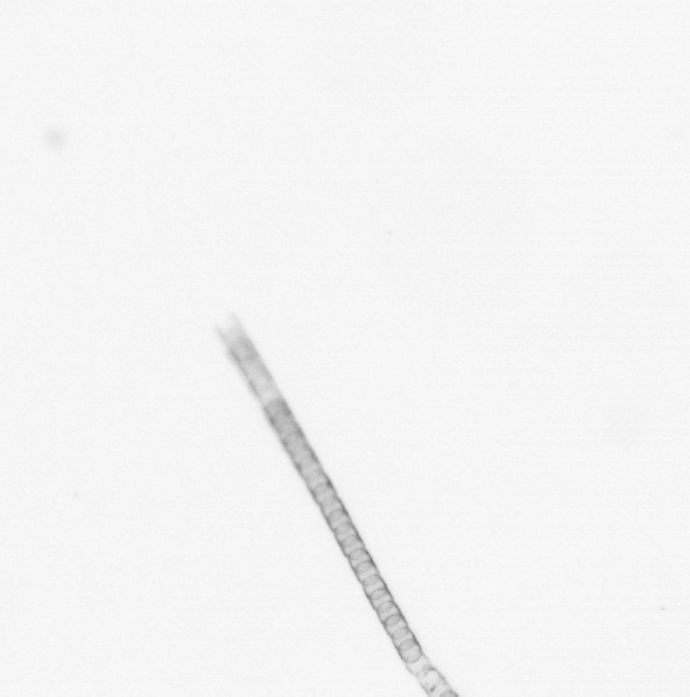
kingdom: Chromista
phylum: Ochrophyta
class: Bacillariophyceae
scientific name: Bacillariophyceae
